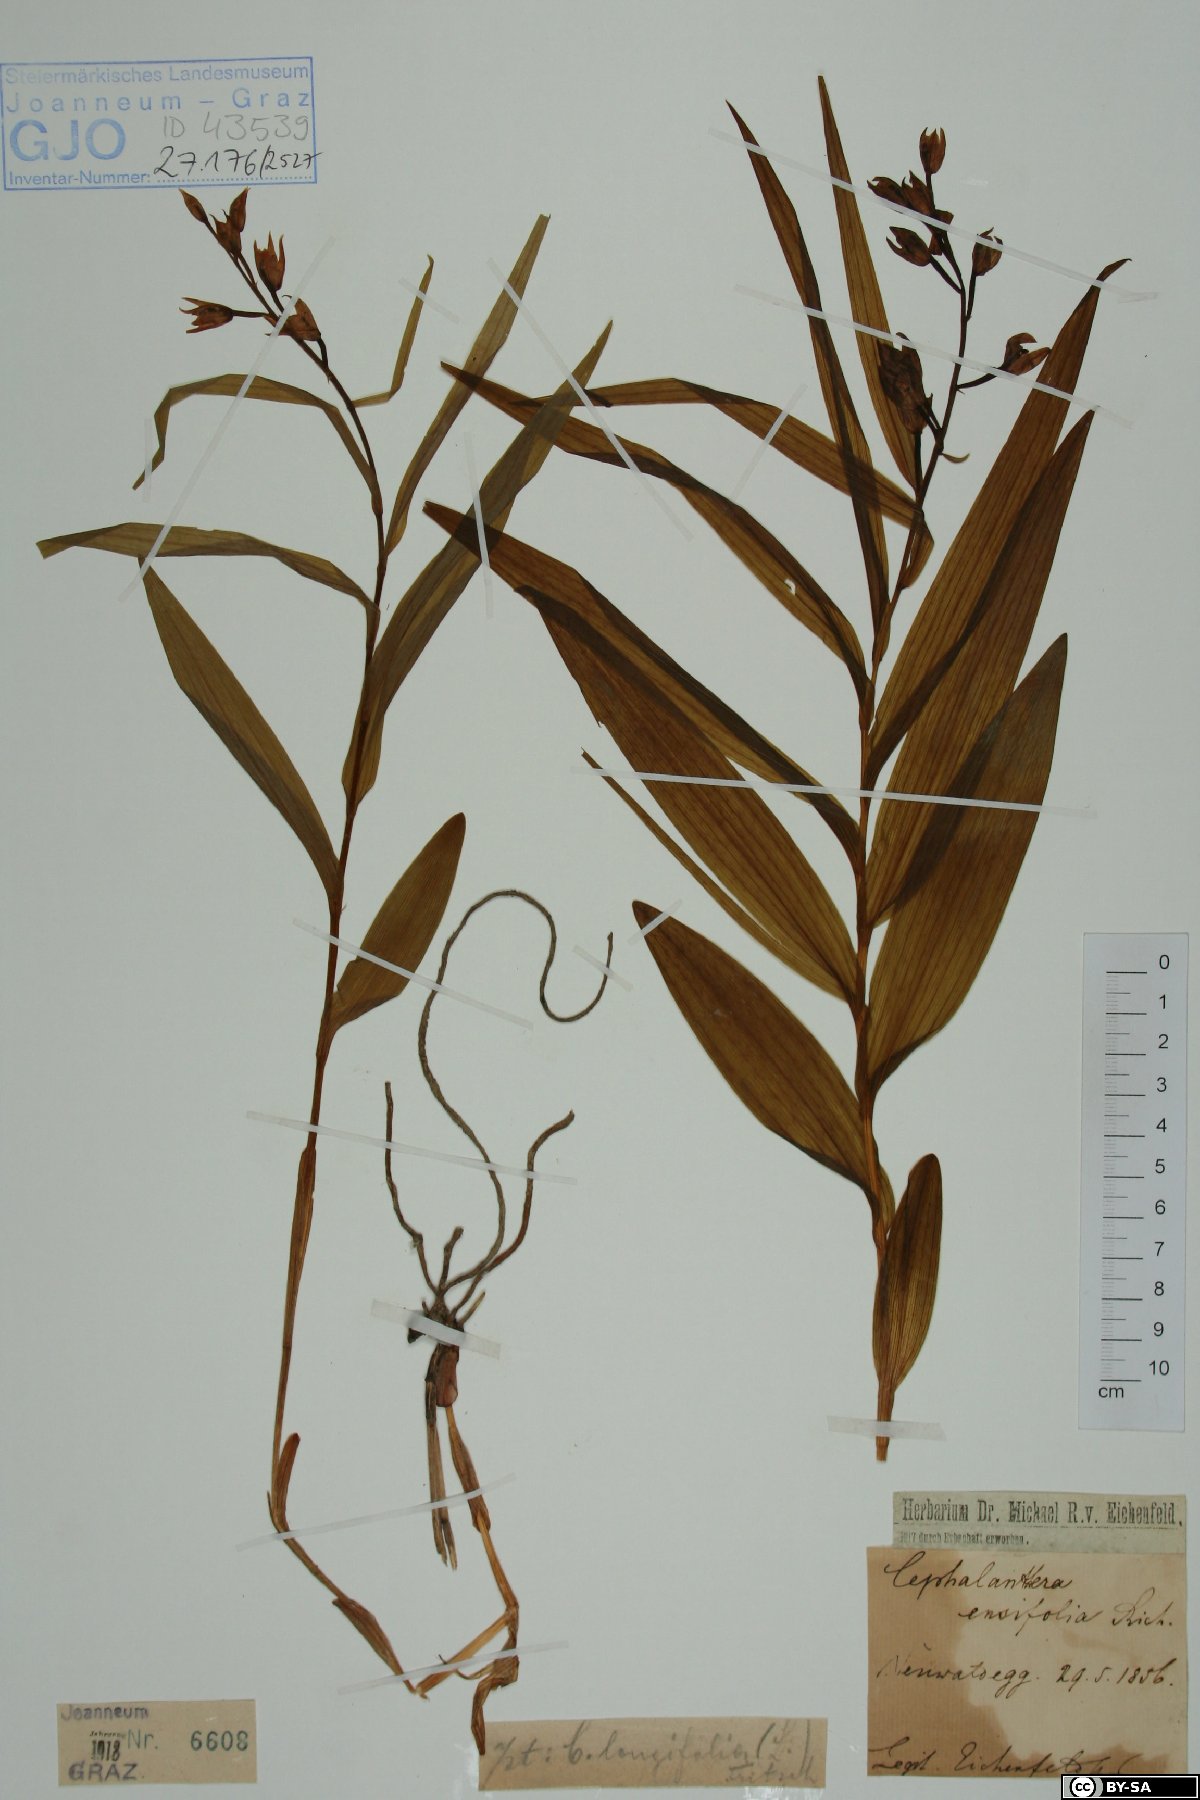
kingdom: Plantae
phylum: Tracheophyta
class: Liliopsida
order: Asparagales
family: Orchidaceae
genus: Cephalanthera
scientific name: Cephalanthera longifolia
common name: Narrow-leaved helleborine
